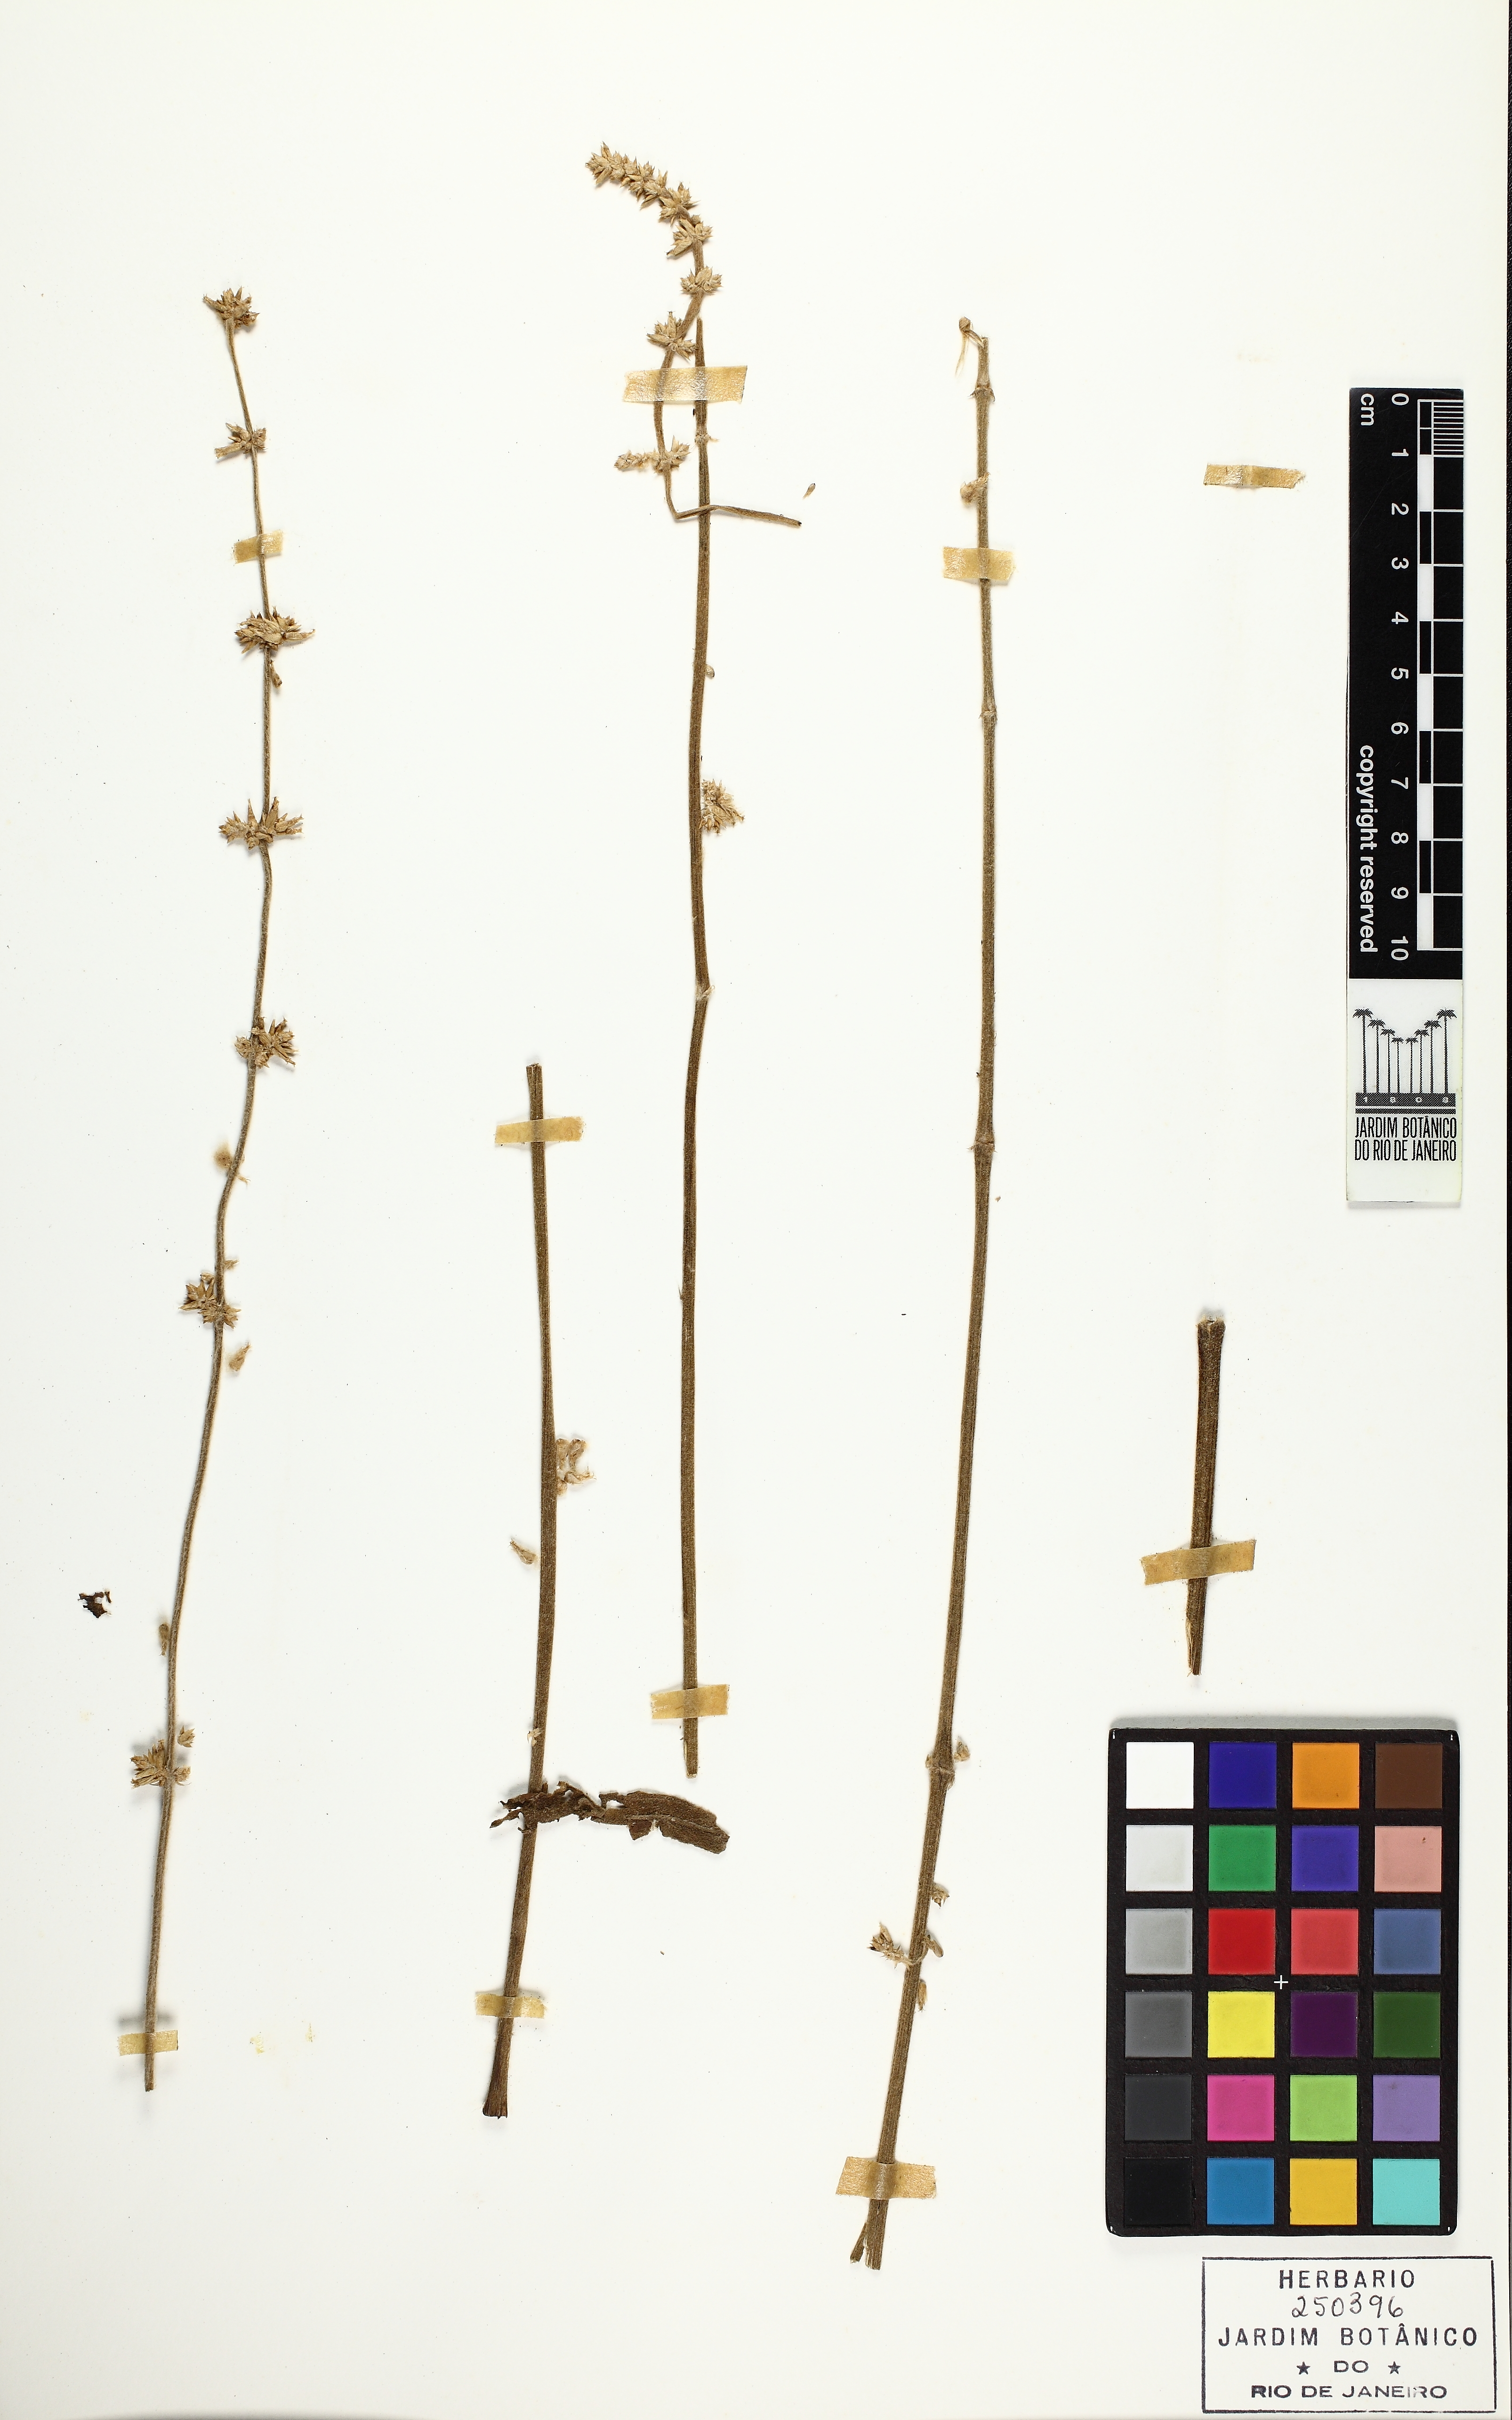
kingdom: Plantae
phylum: Tracheophyta
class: Magnoliopsida
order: Caryophyllales
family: Amaranthaceae
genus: Froelichia
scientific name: Froelichia procera
